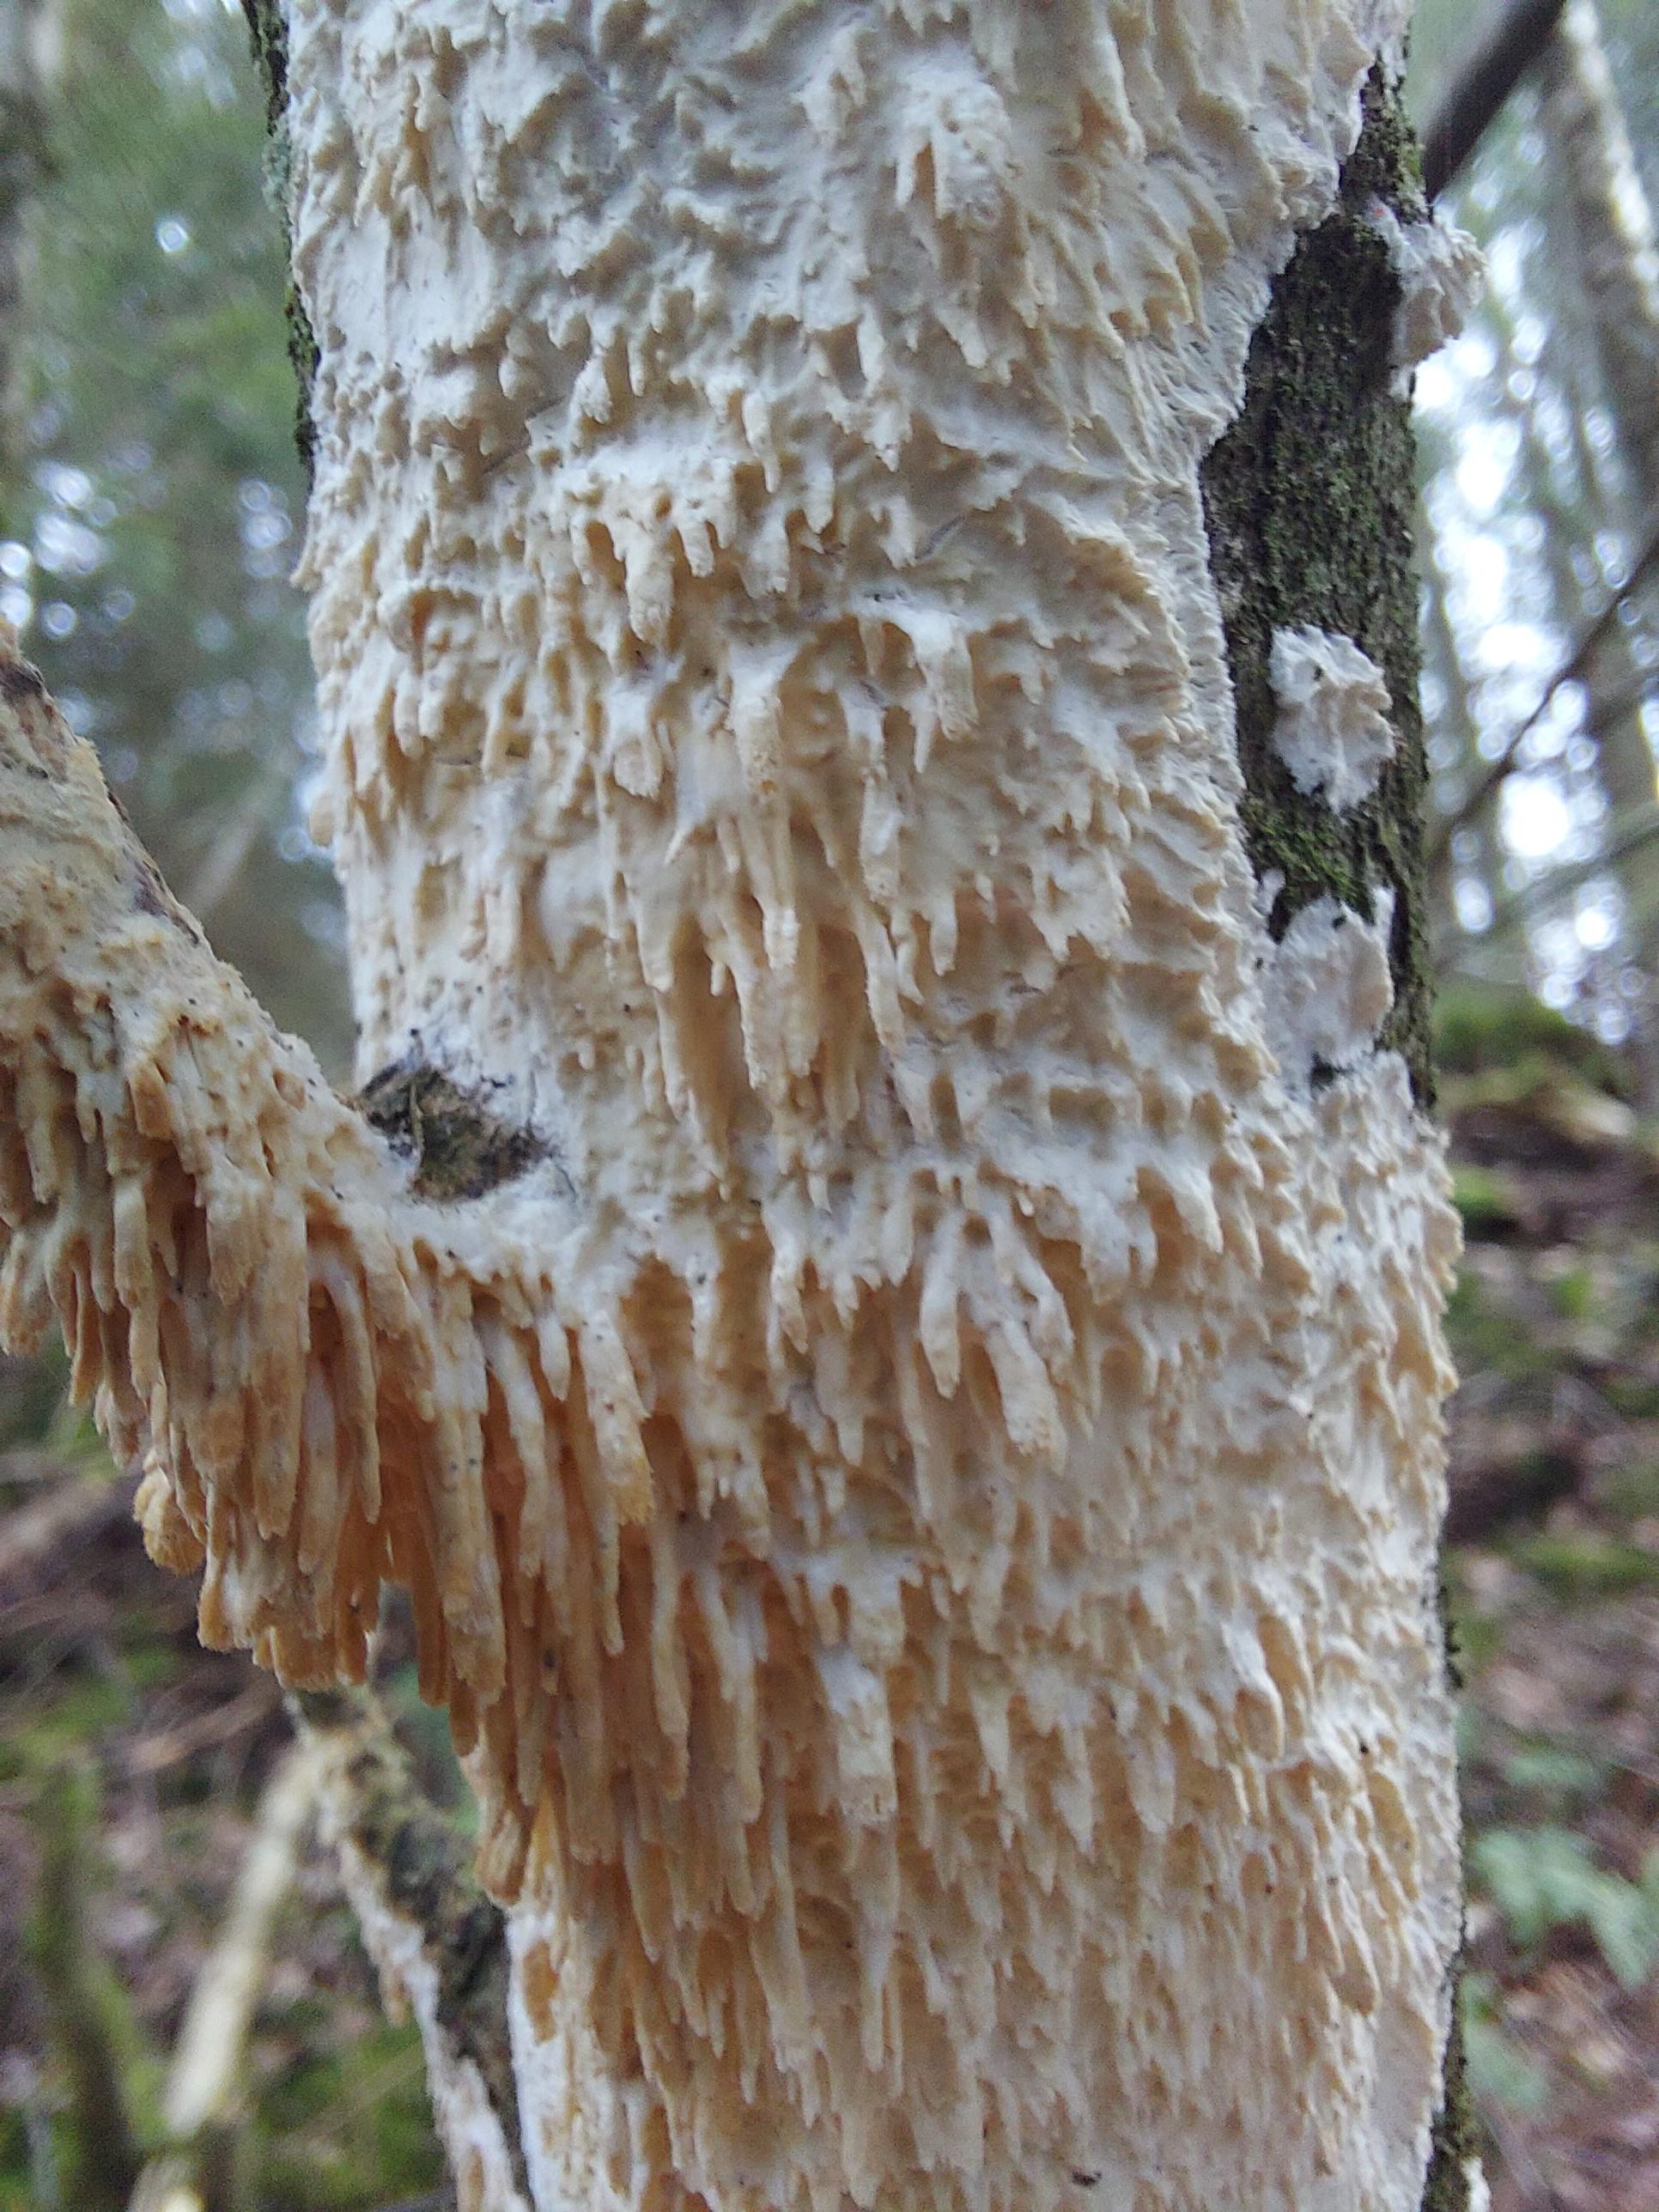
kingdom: Fungi
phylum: Basidiomycota
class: Agaricomycetes
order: Hymenochaetales
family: Schizoporaceae
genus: Xylodon
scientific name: Xylodon radula
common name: grovtandet kalkskind
